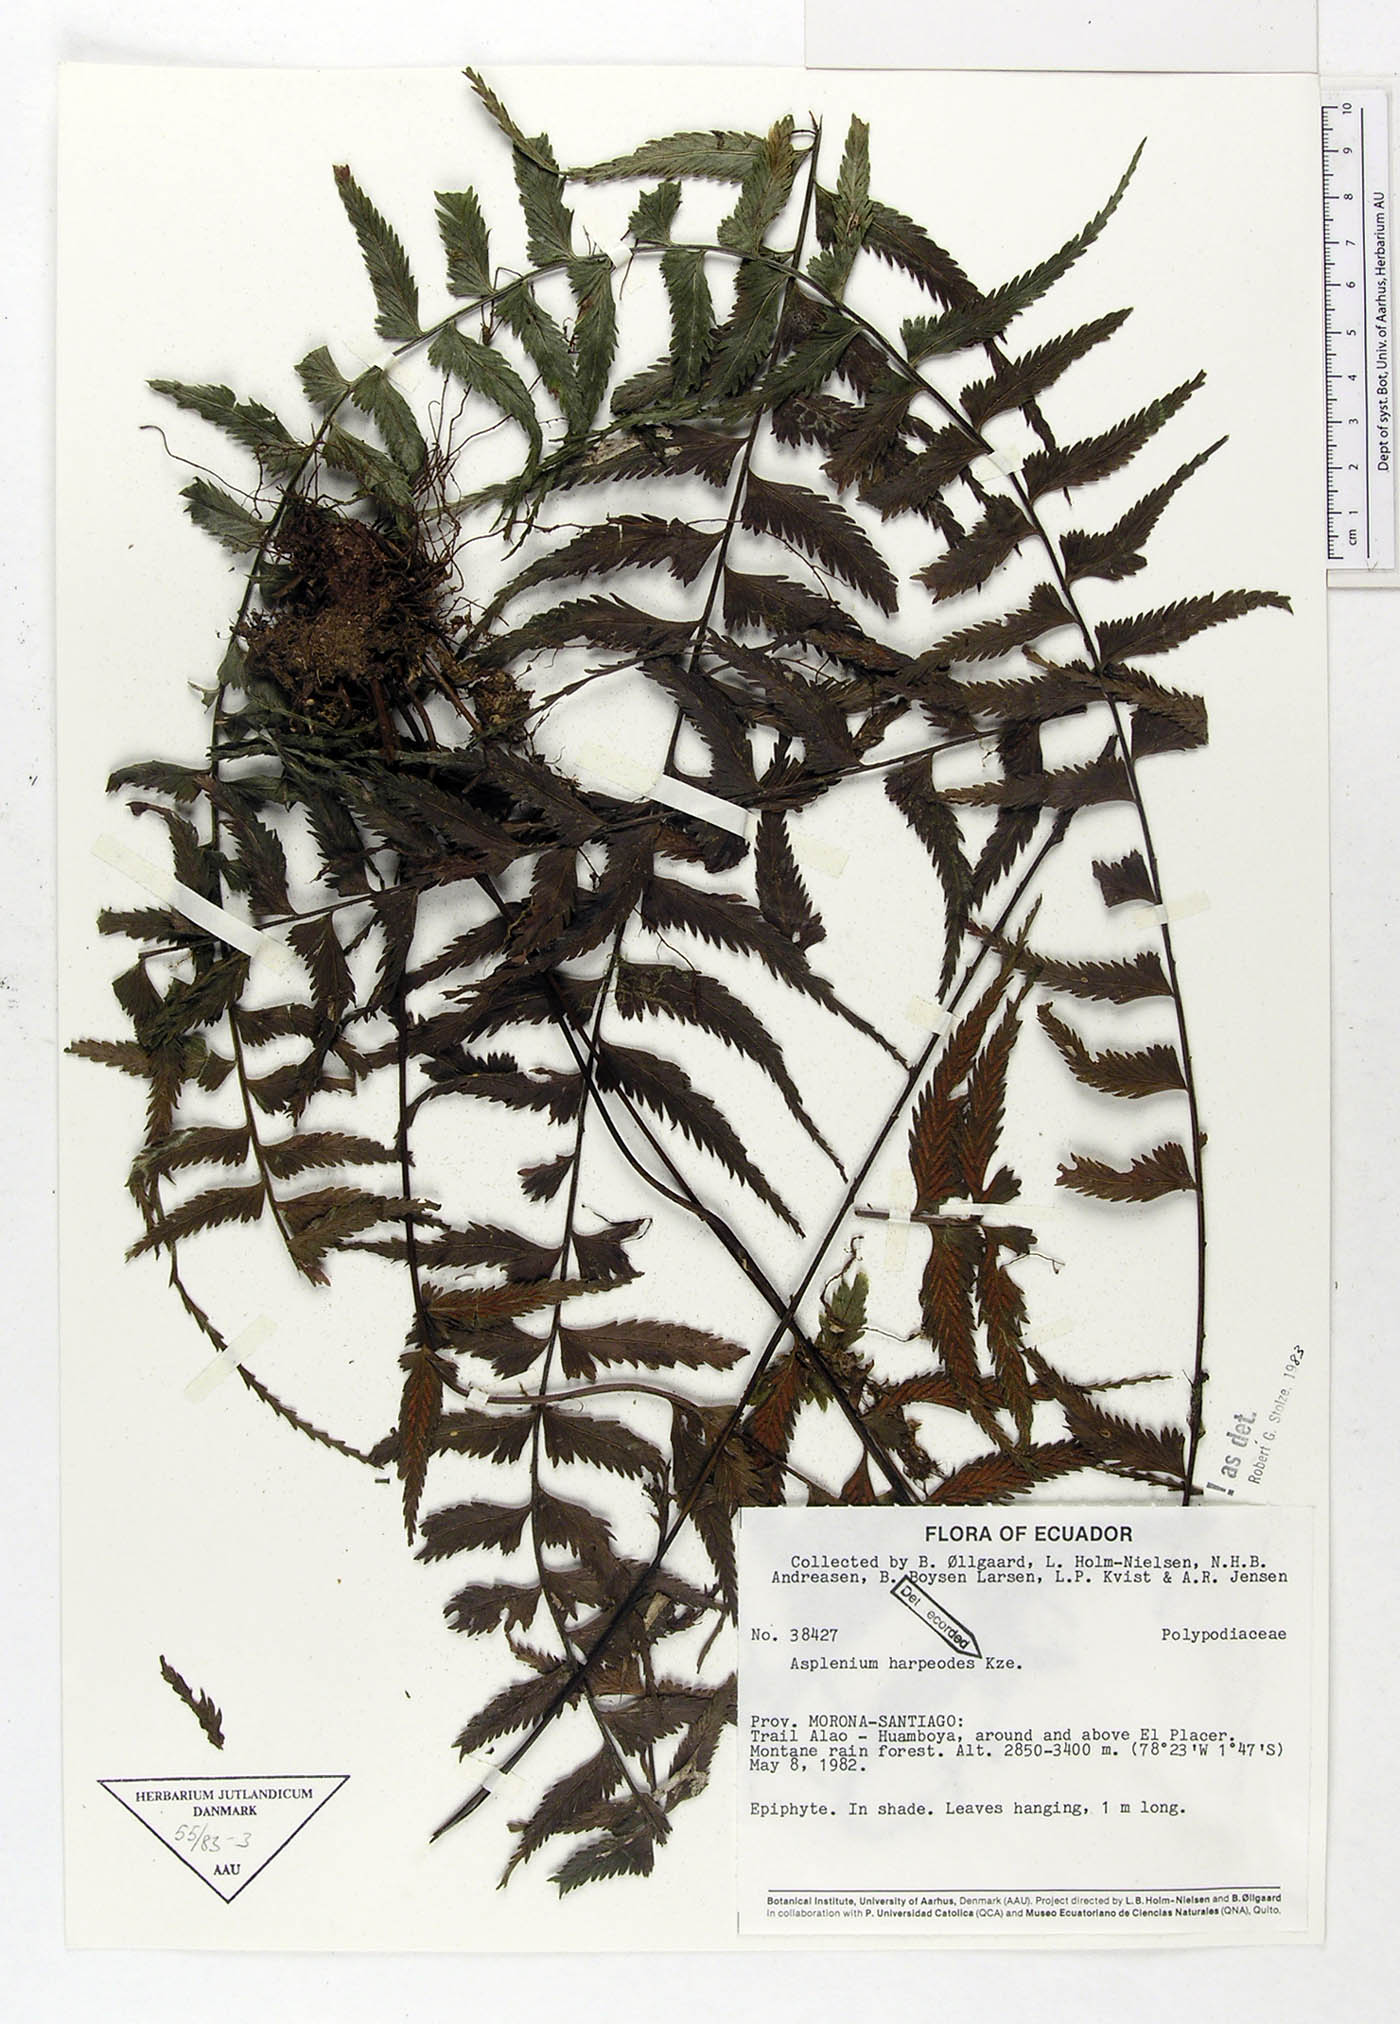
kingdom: Plantae
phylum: Tracheophyta
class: Polypodiopsida
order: Polypodiales
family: Aspleniaceae
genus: Asplenium
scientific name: Asplenium harpeodes
